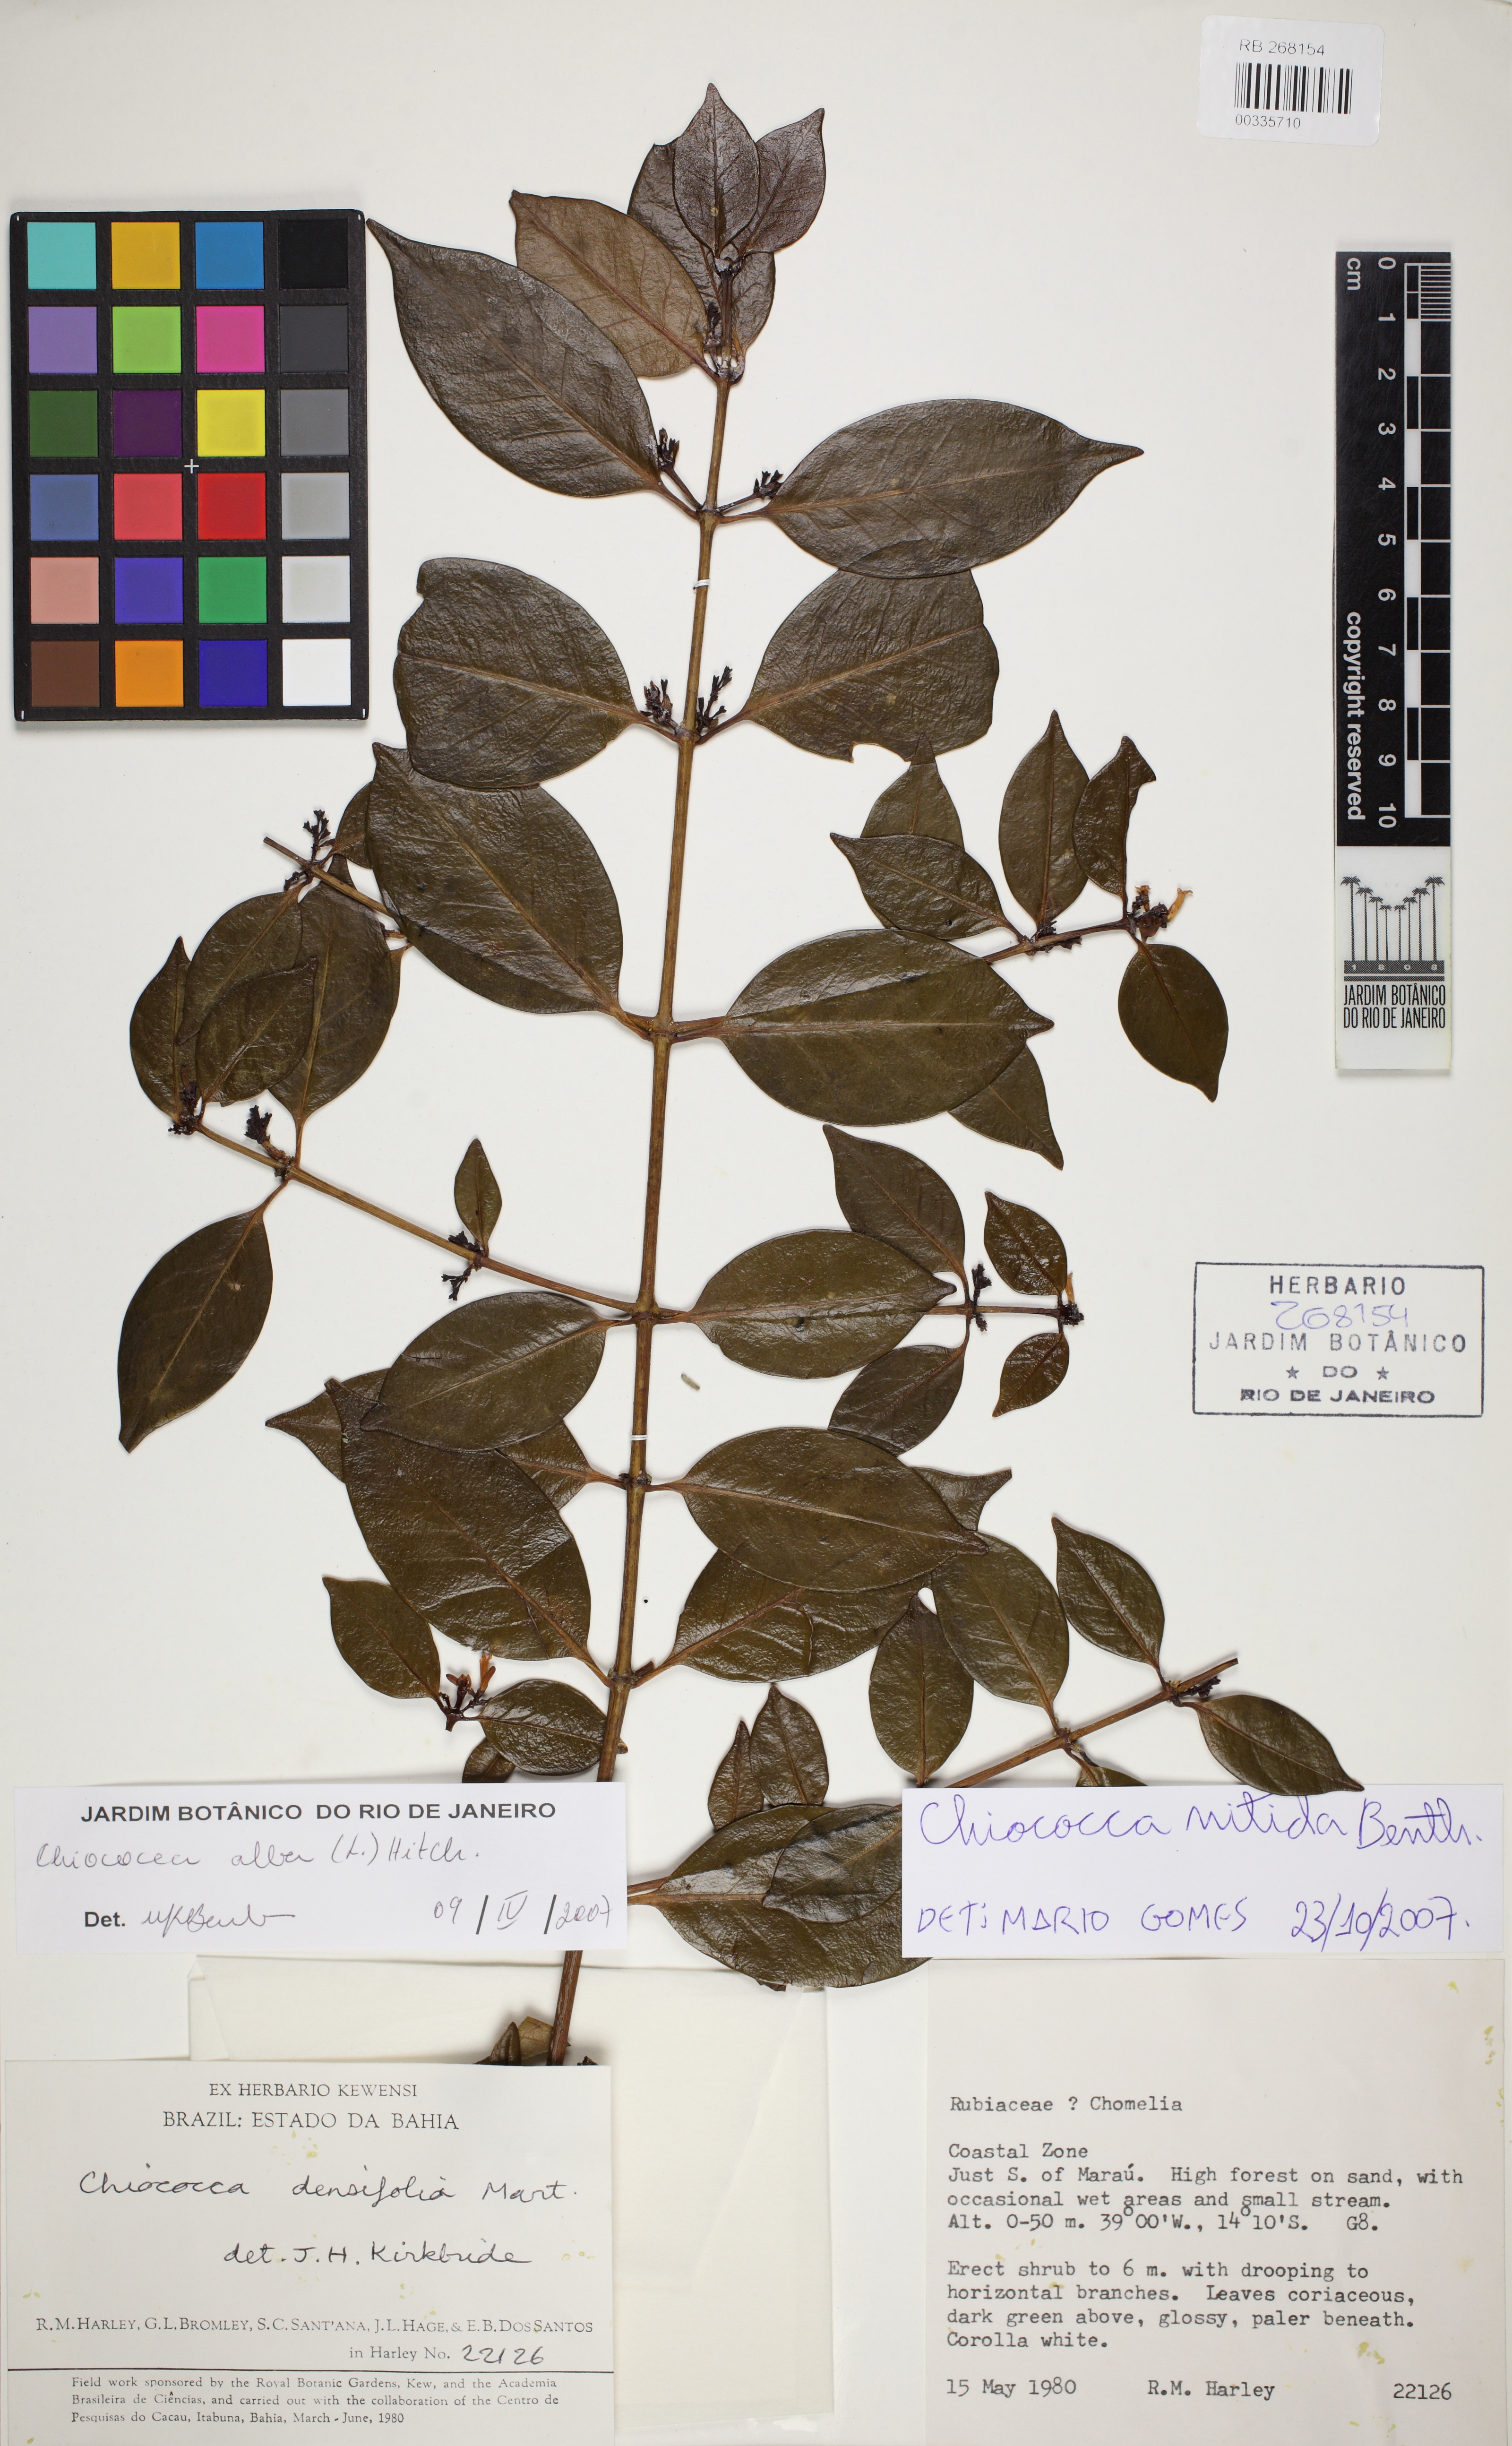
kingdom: Plantae
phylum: Tracheophyta
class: Magnoliopsida
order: Gentianales
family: Rubiaceae
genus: Chiococca
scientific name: Chiococca nitida
